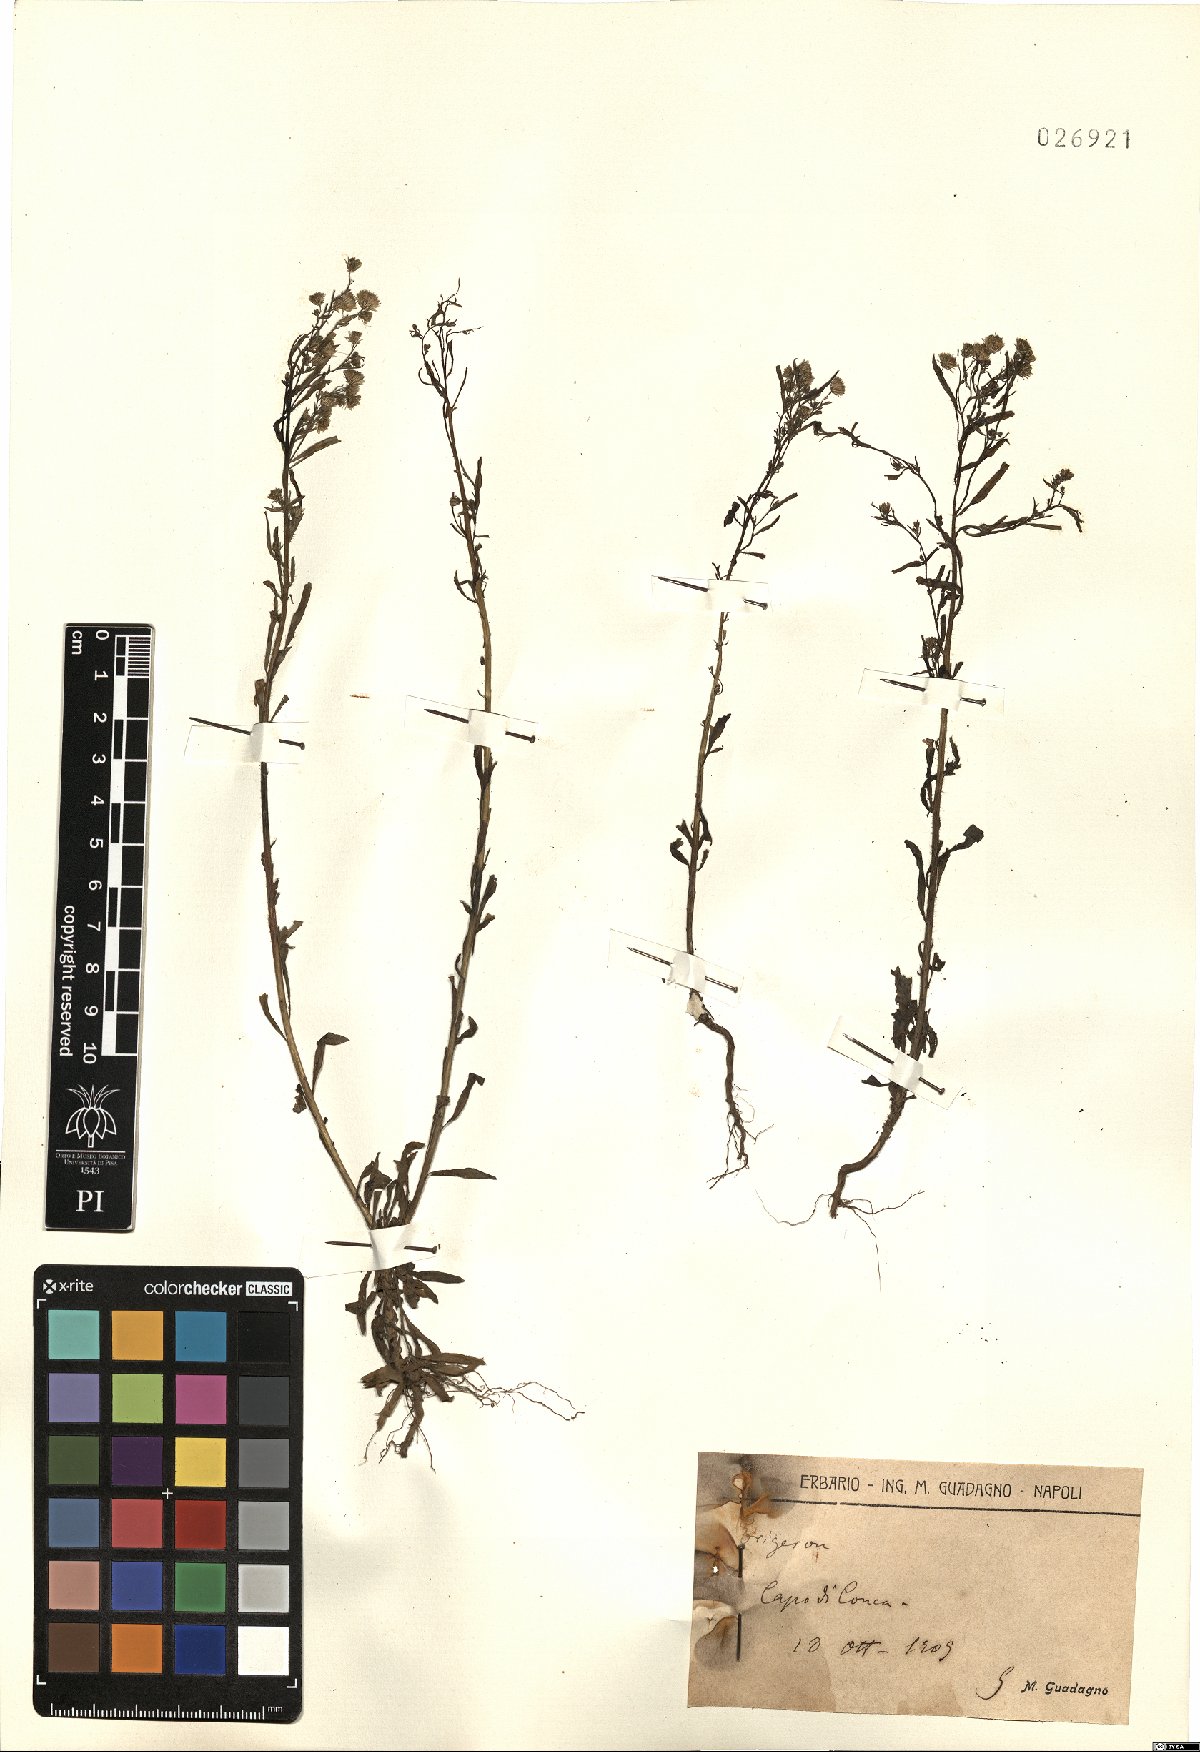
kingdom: Plantae
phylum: Tracheophyta
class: Magnoliopsida
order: Asterales
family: Asteraceae
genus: Erigeron
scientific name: Erigeron
